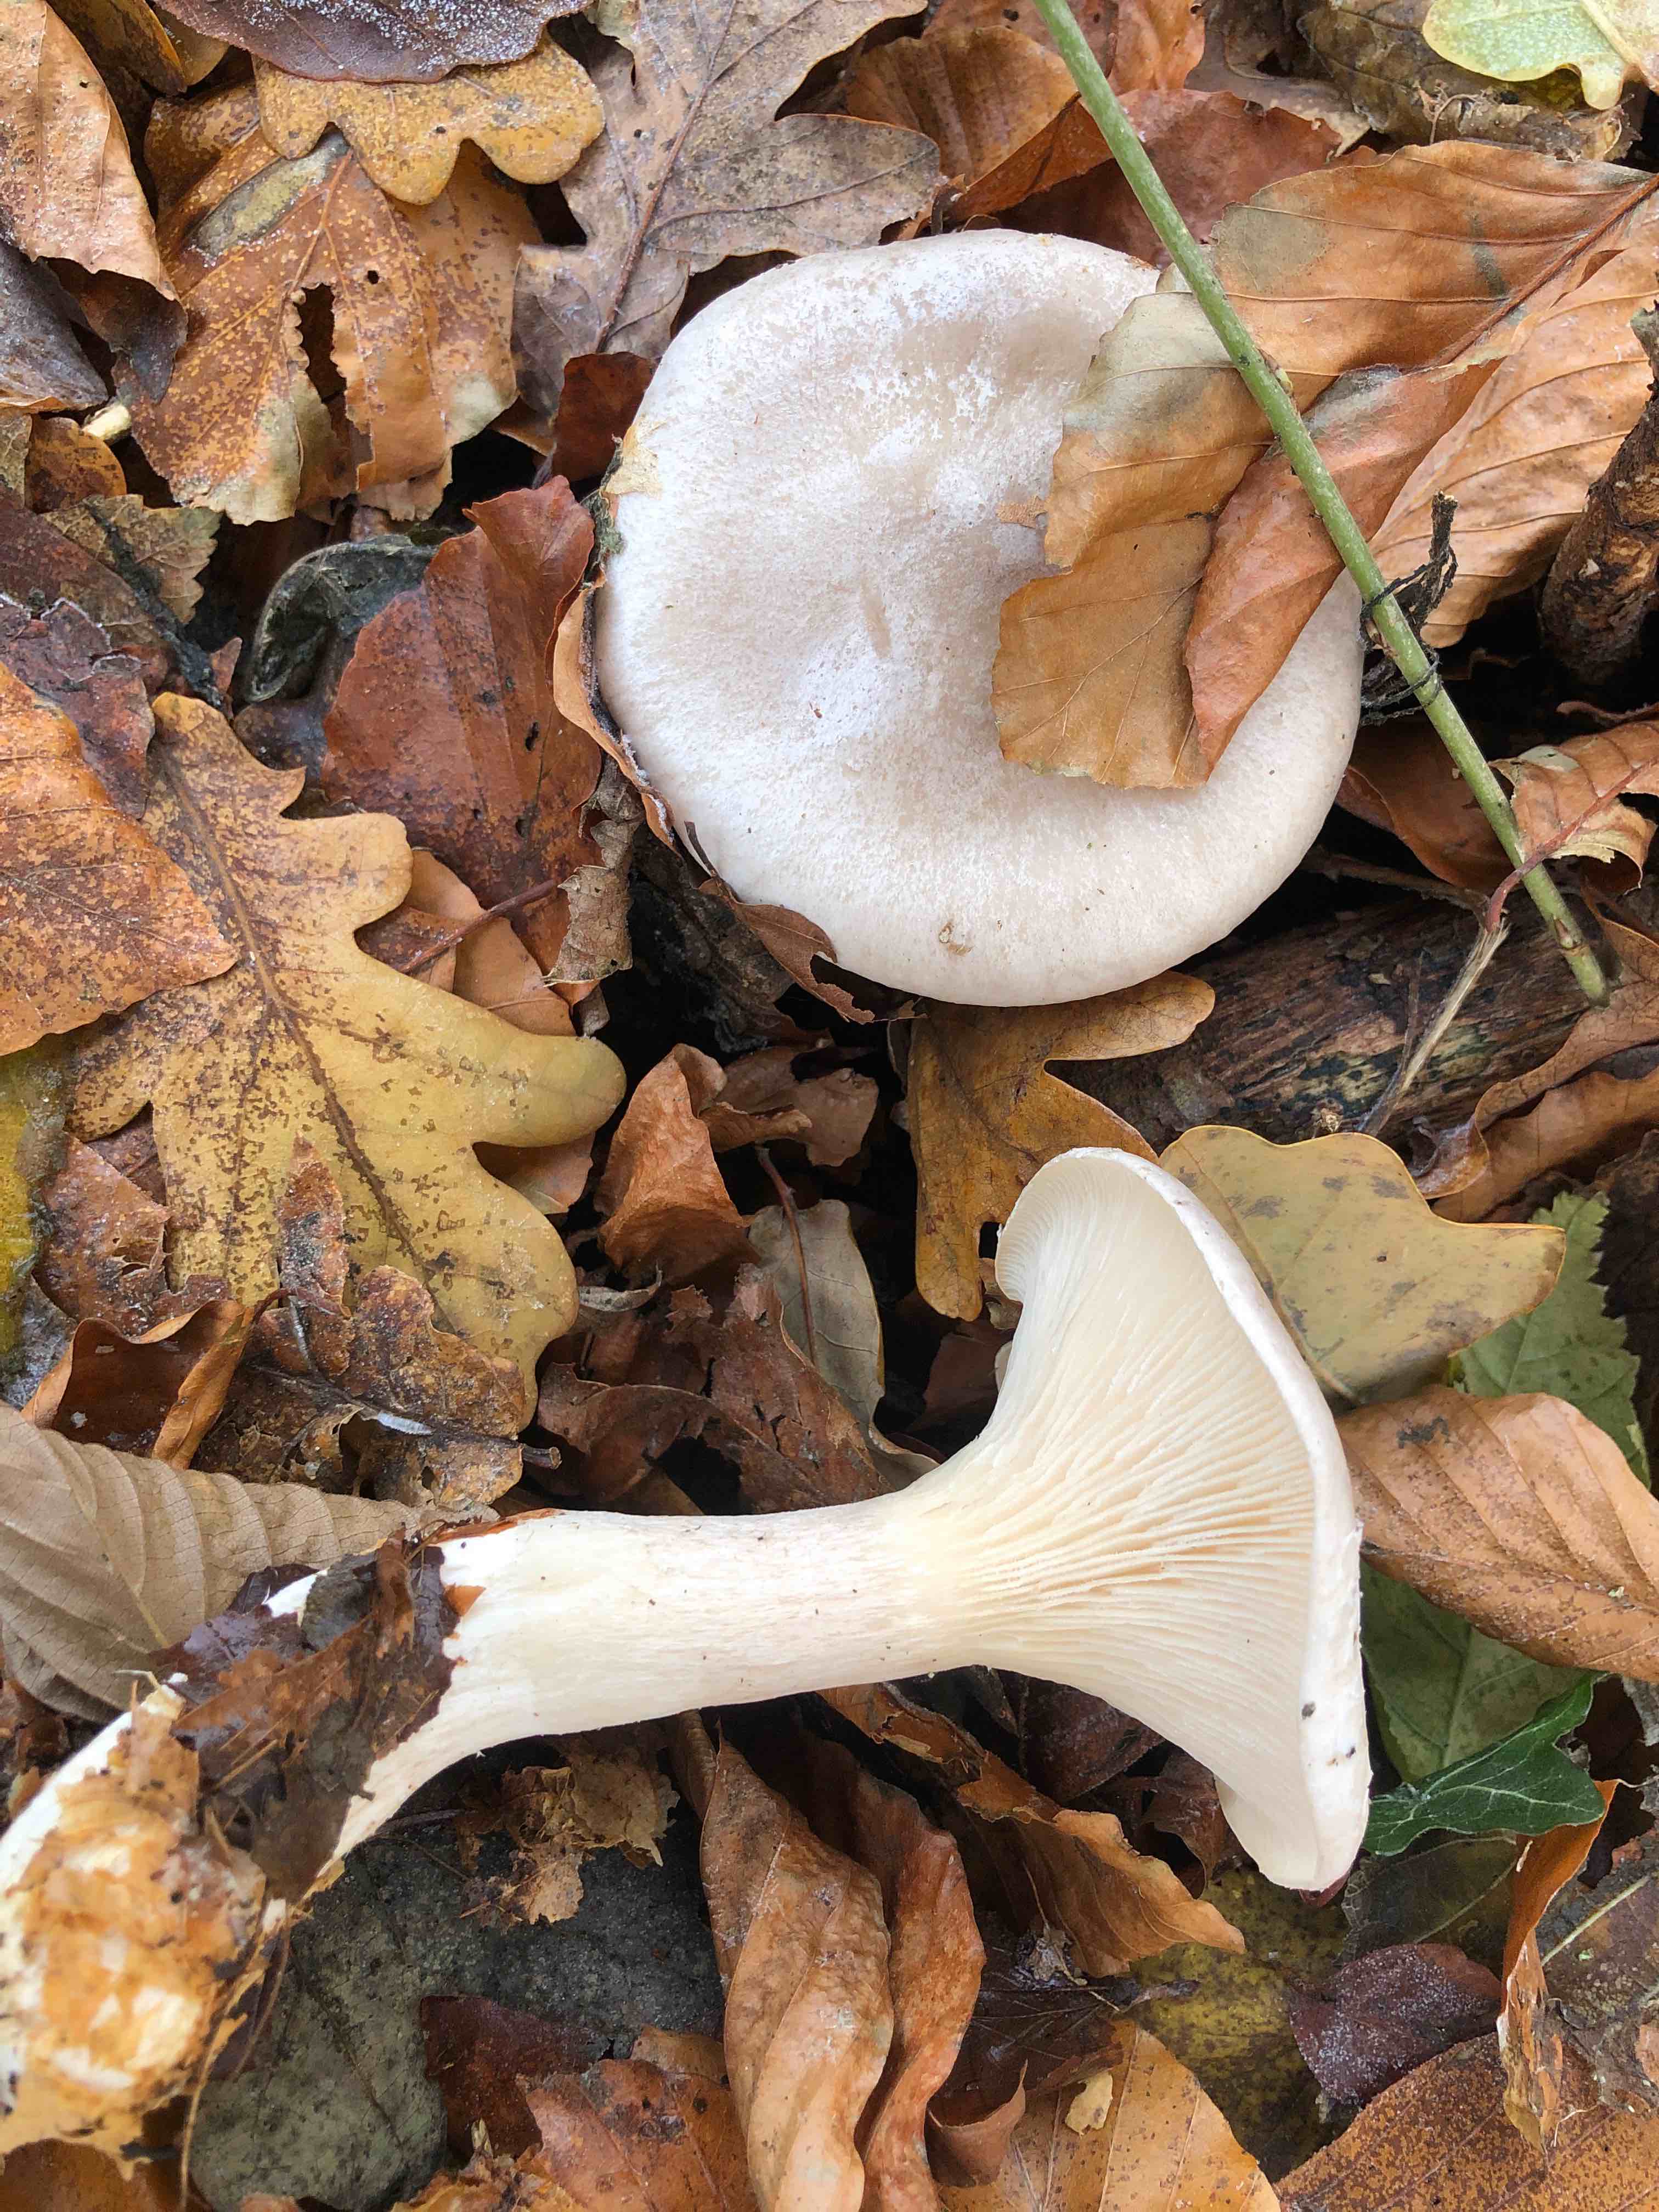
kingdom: Fungi
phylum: Basidiomycota
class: Agaricomycetes
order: Agaricales
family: Tricholomataceae
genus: Clitocybe
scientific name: Clitocybe nebularis
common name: tåge-tragthat
